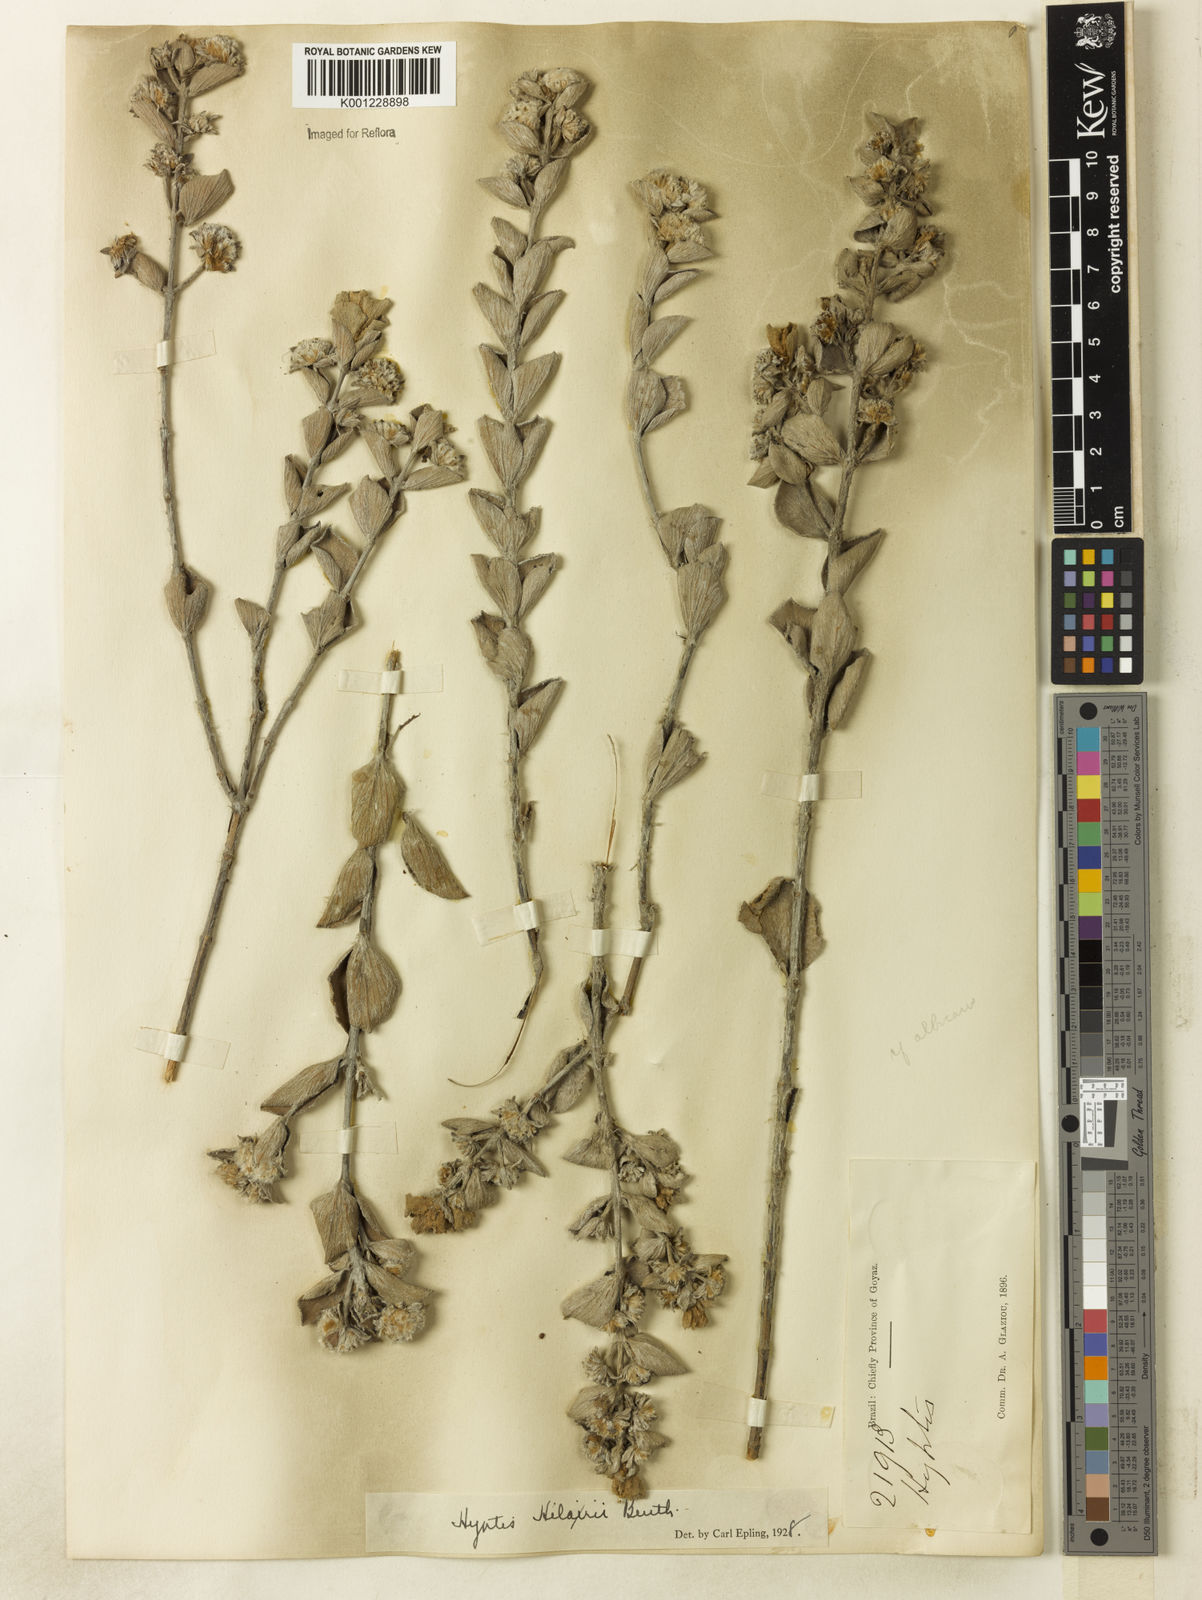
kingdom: Plantae
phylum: Tracheophyta
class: Magnoliopsida
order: Lamiales
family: Lamiaceae
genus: Hyptis
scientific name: Hyptis hilarii
